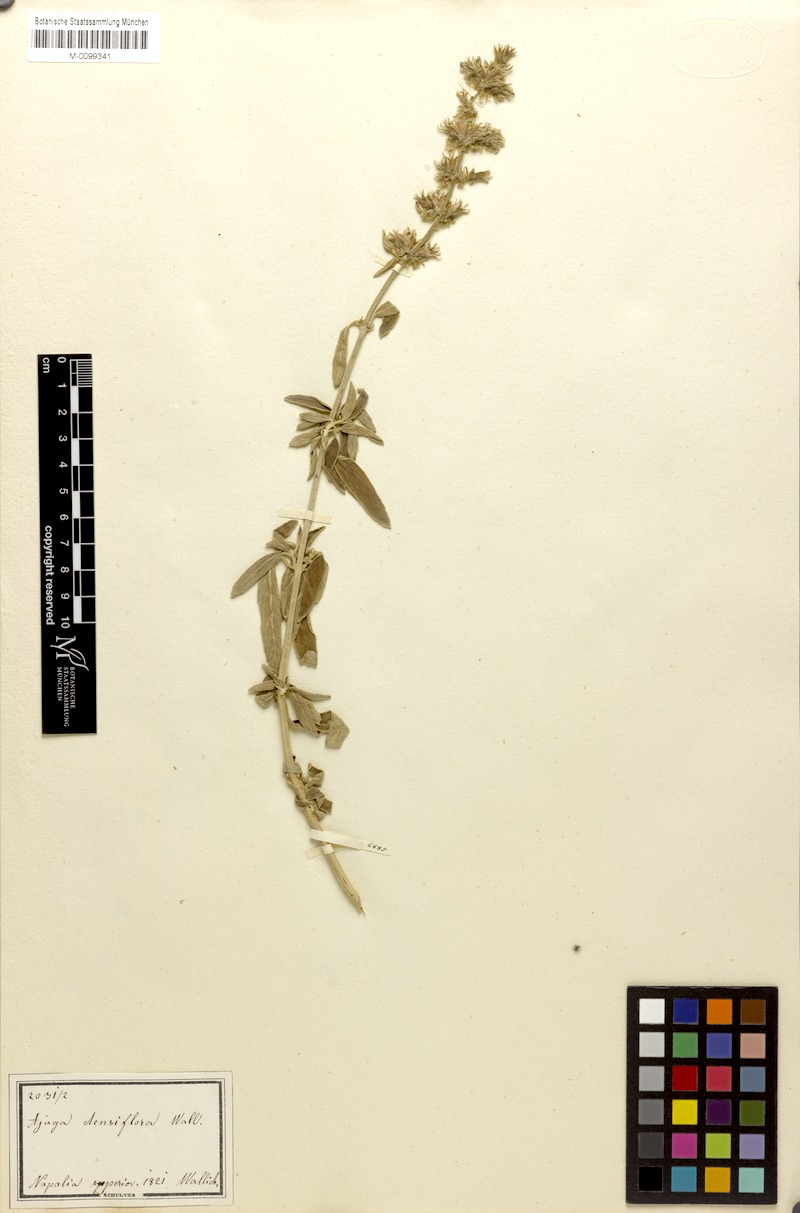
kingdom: Plantae
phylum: Tracheophyta
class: Magnoliopsida
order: Lamiales
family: Lamiaceae
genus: Ajuga
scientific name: Ajuga integrifolia
